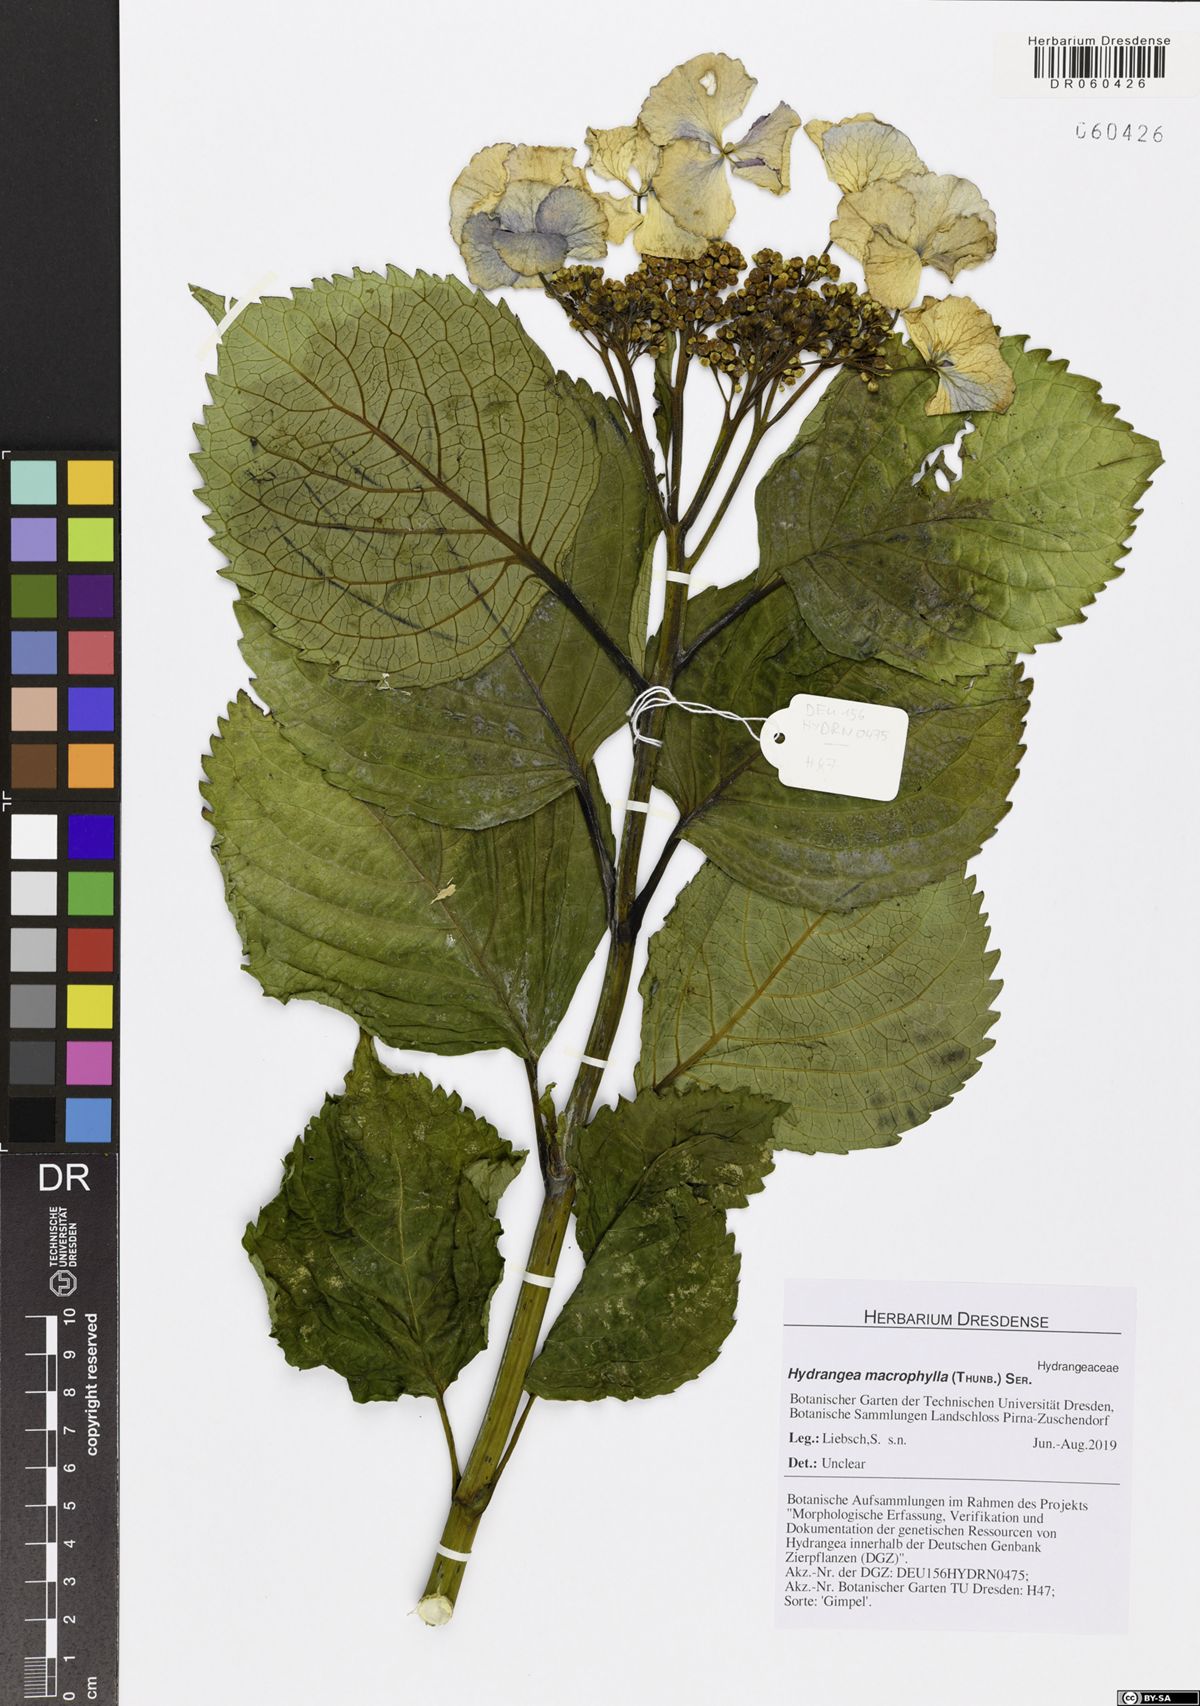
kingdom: Plantae
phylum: Tracheophyta
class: Magnoliopsida
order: Cornales
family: Hydrangeaceae
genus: Hydrangea
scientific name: Hydrangea macrophylla
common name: Hydrangea
